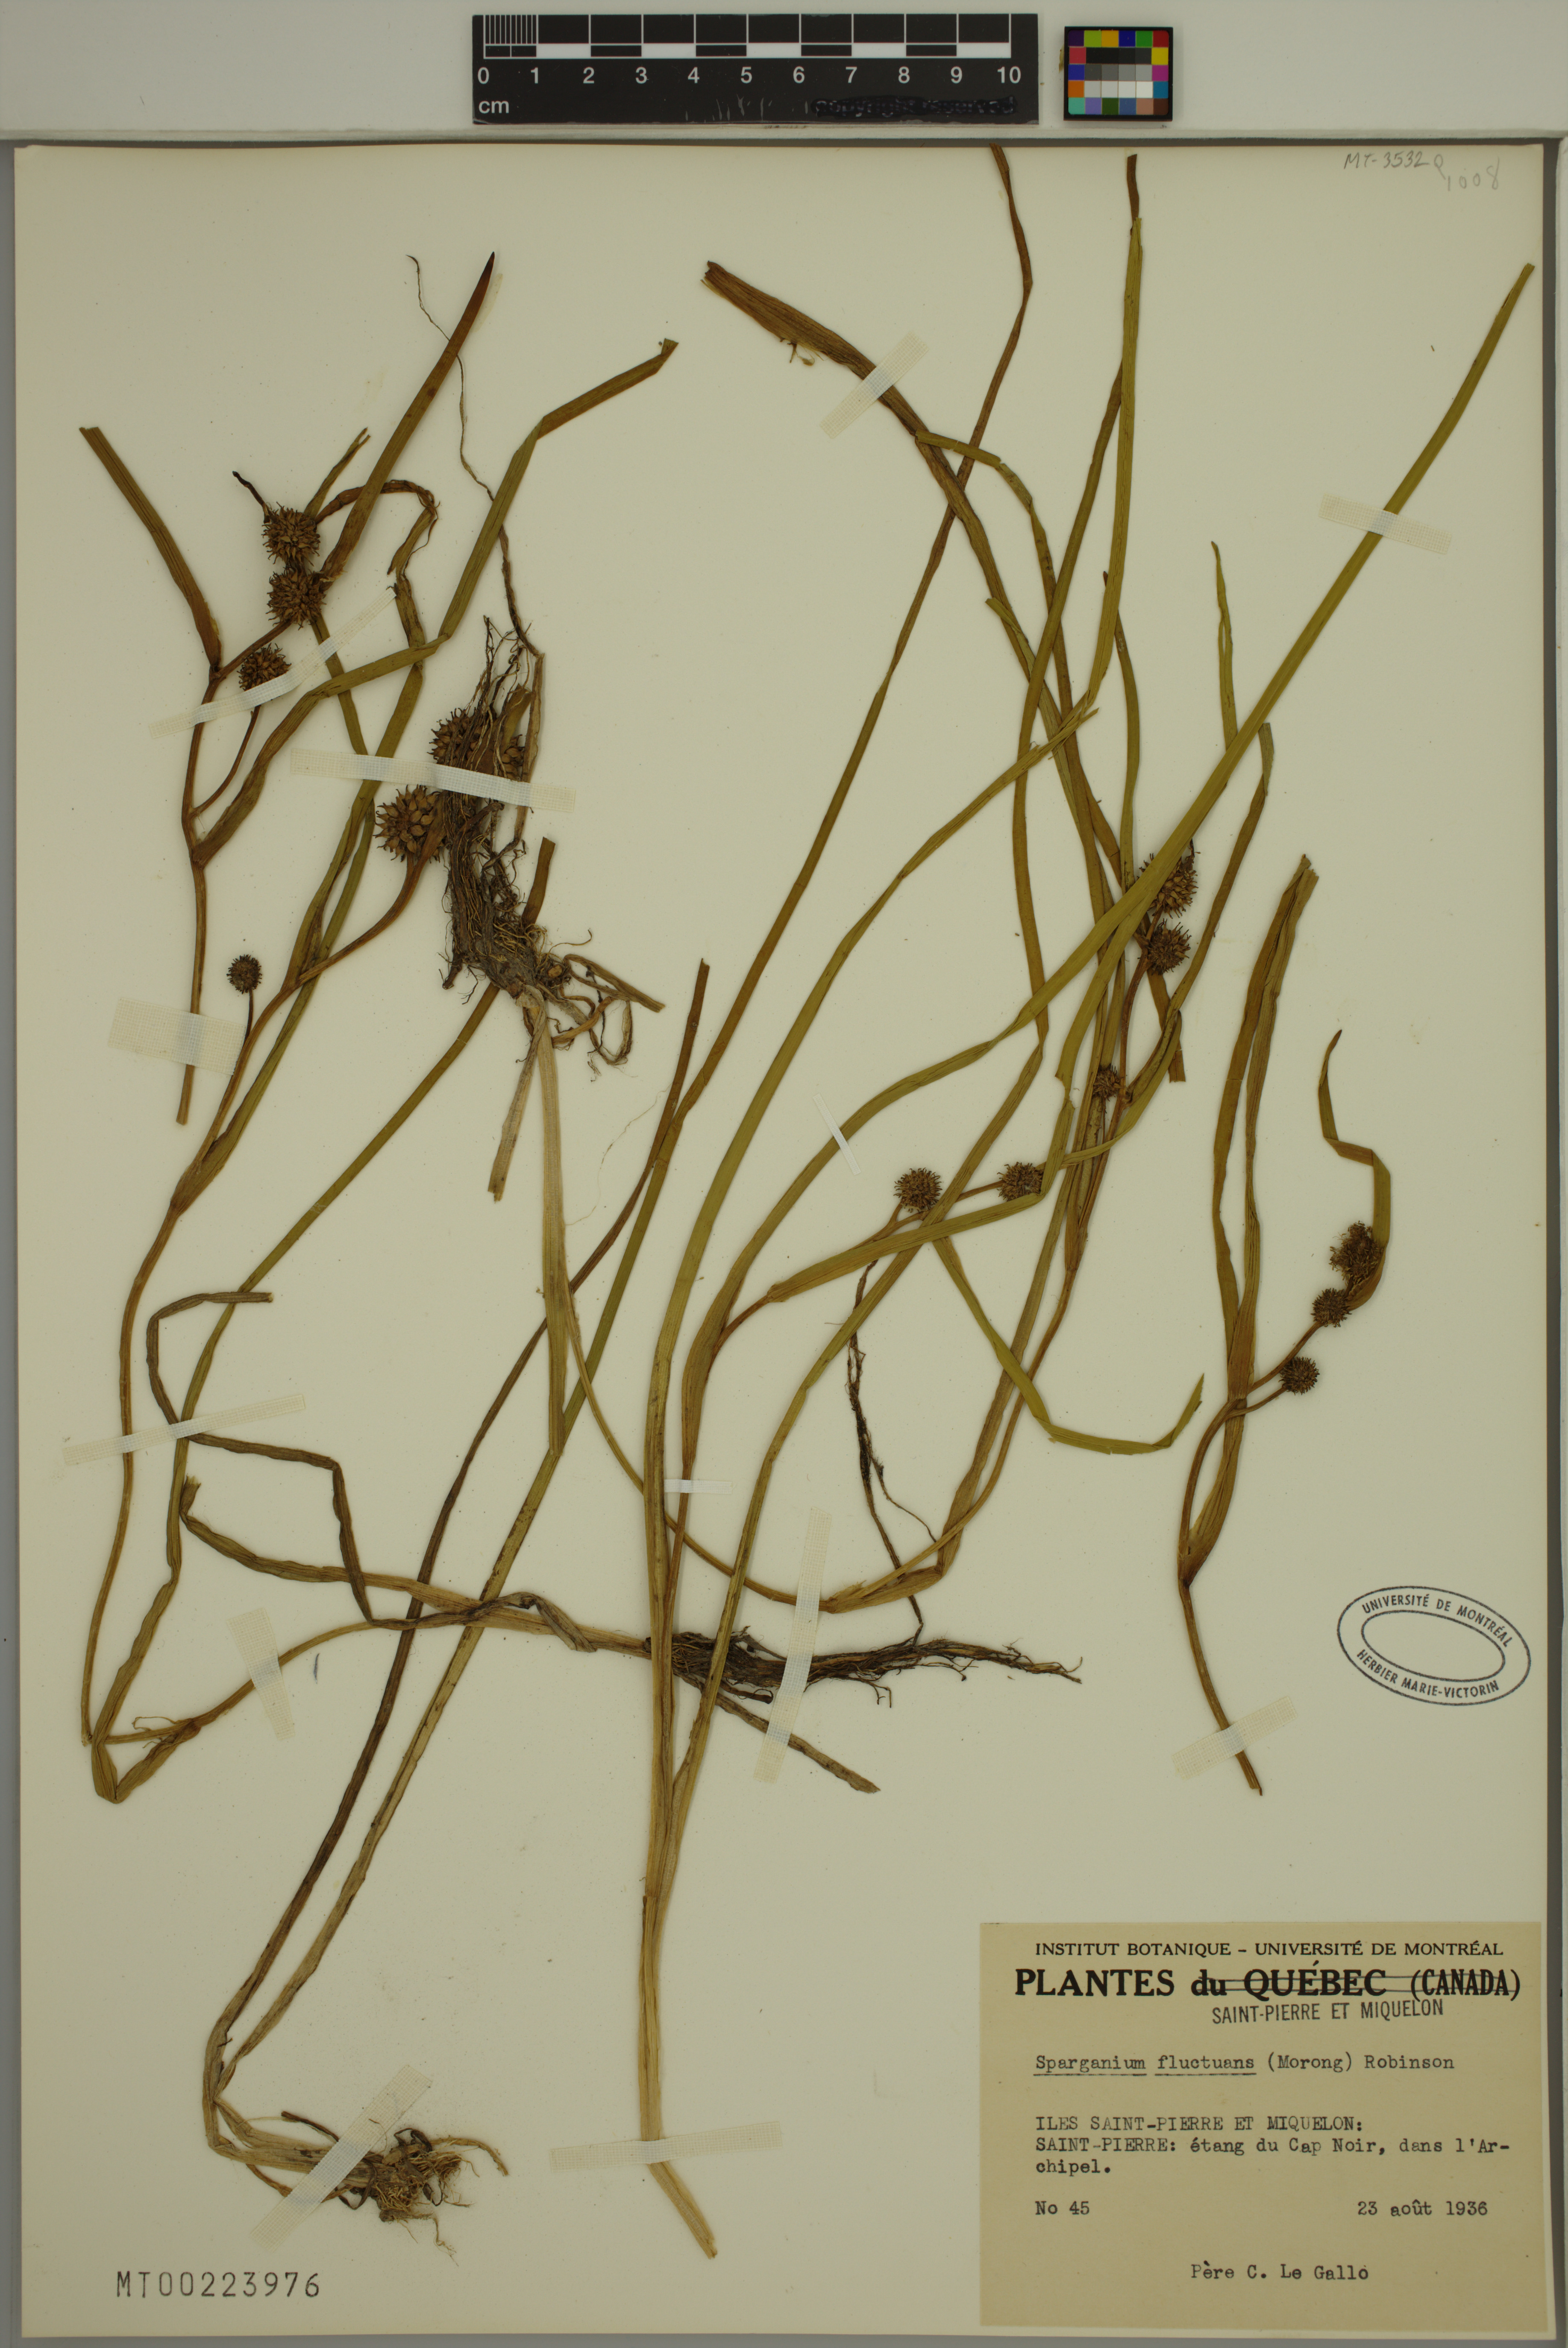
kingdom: Plantae
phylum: Tracheophyta
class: Liliopsida
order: Poales
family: Typhaceae
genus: Sparganium
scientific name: Sparganium fluctuans
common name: Floating burreed
